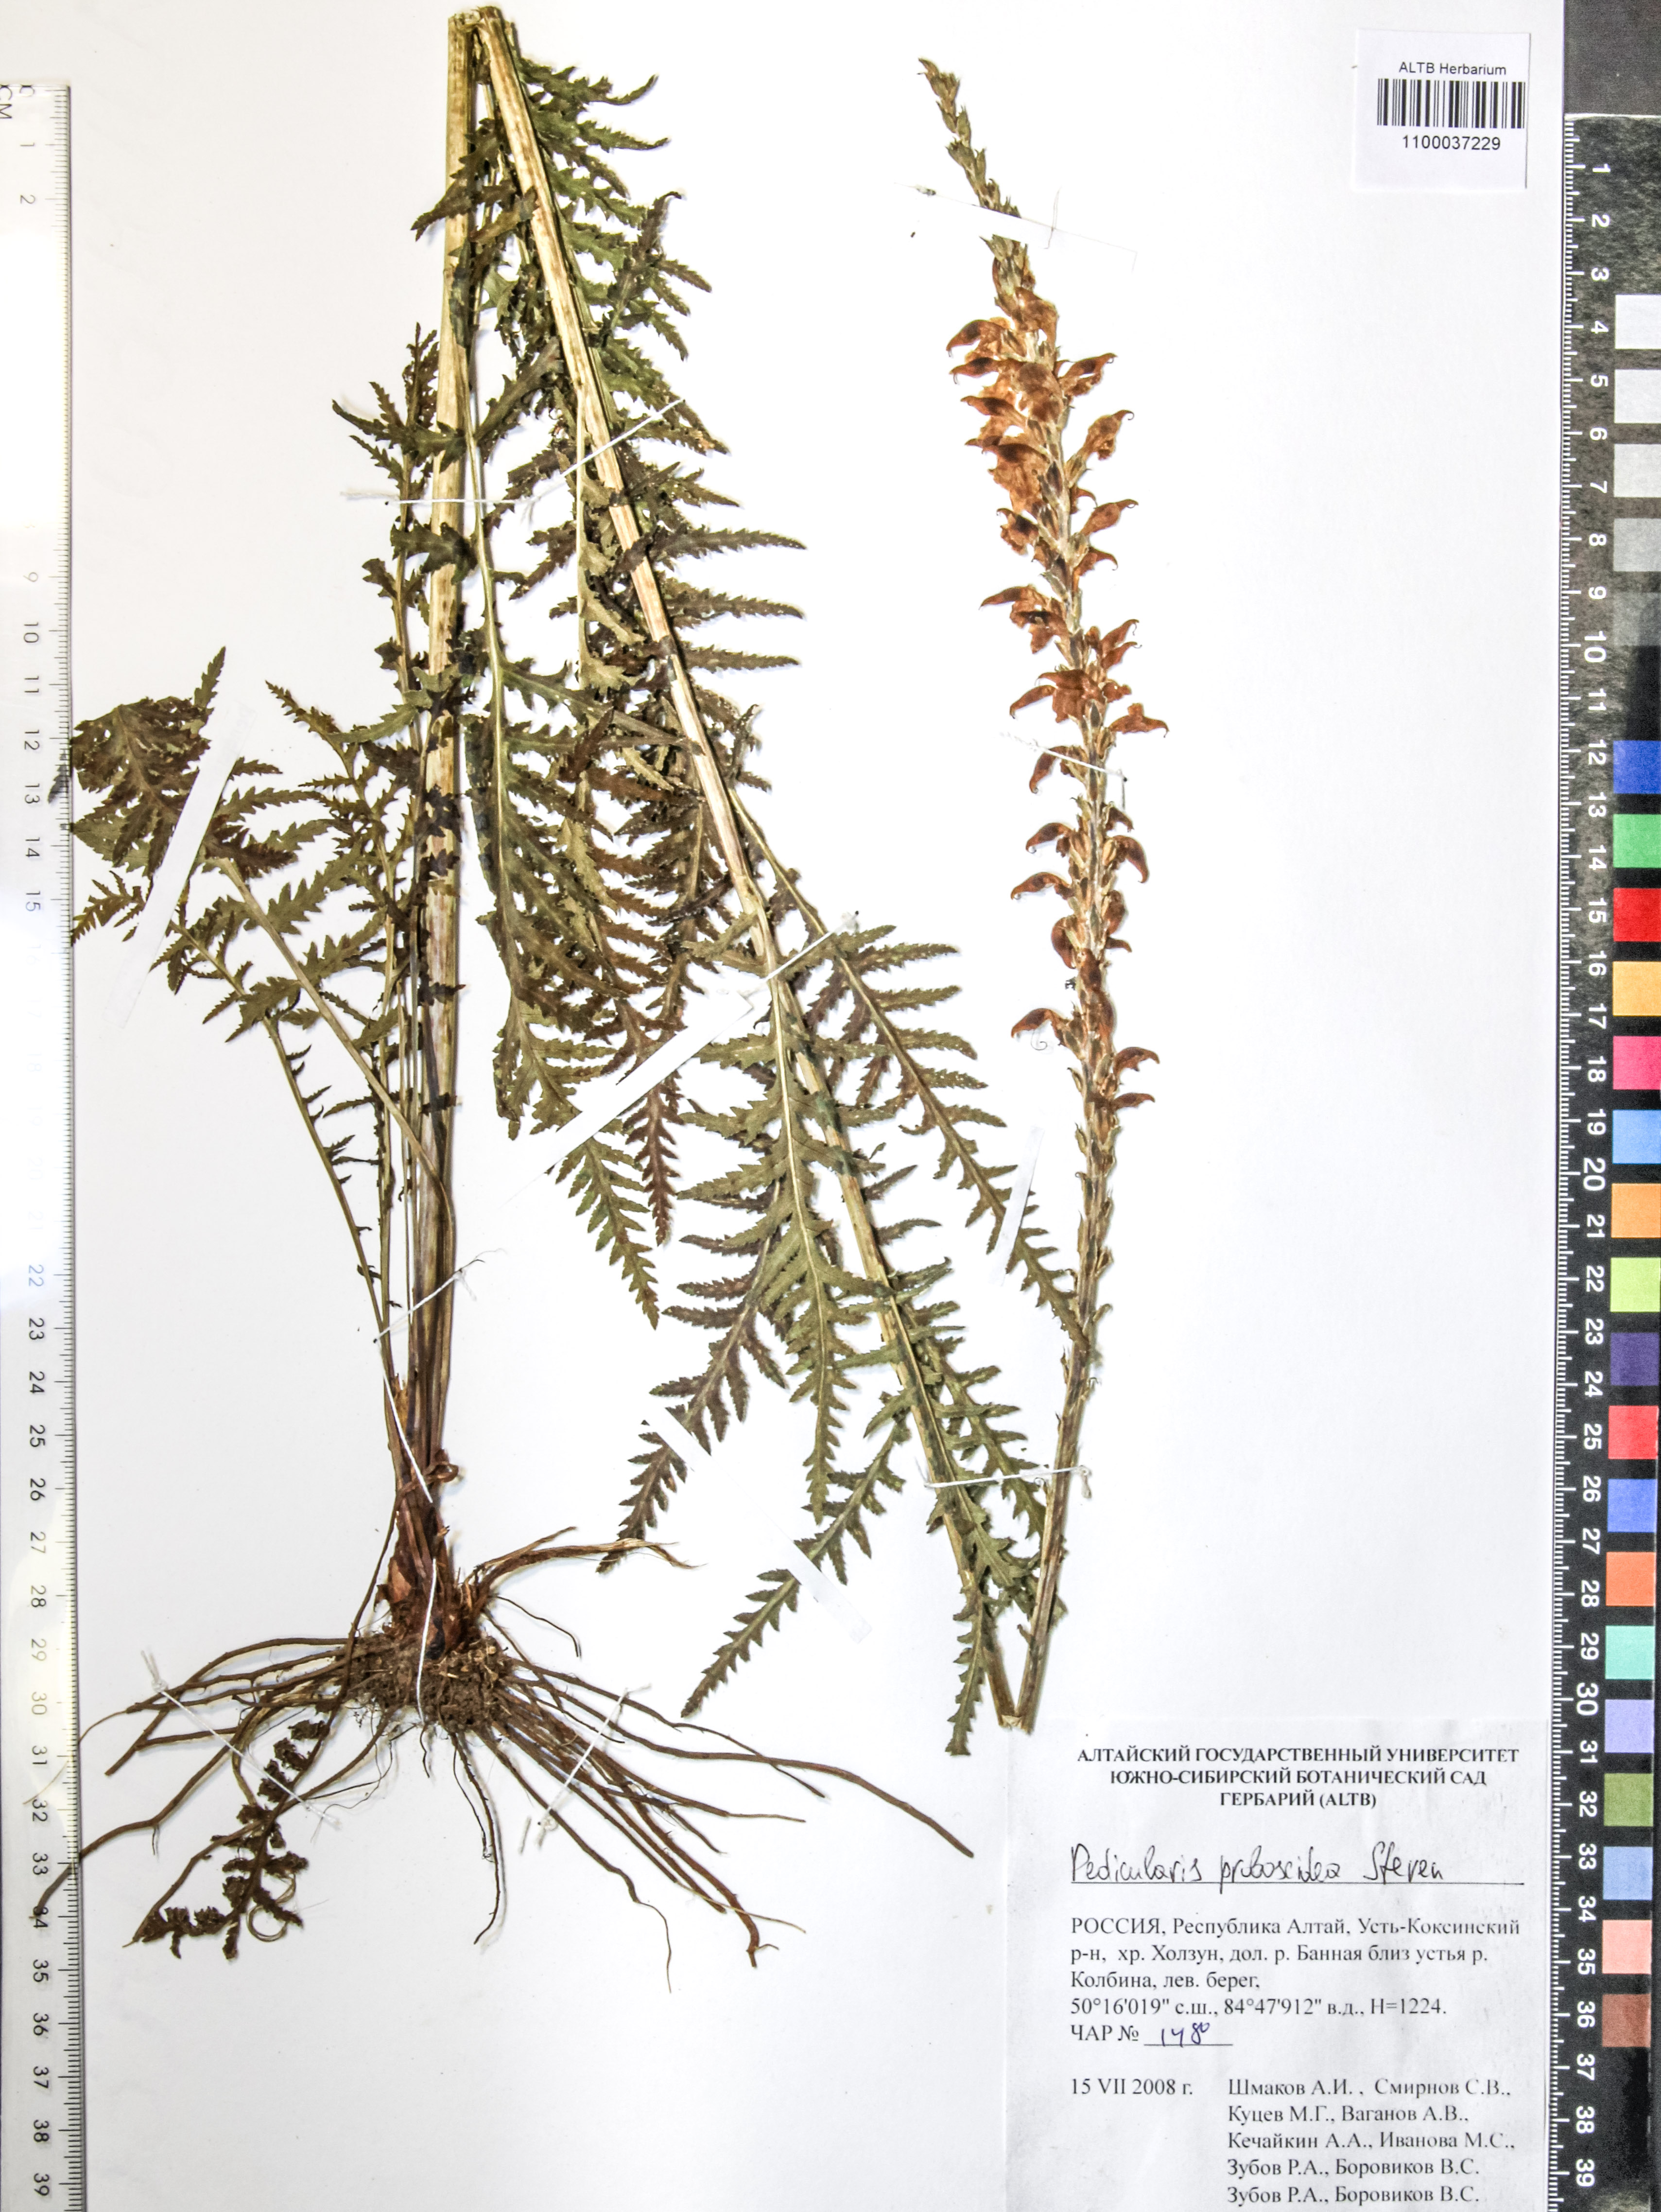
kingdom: Plantae
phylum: Tracheophyta
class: Magnoliopsida
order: Lamiales
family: Orobanchaceae
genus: Pedicularis
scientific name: Pedicularis proboscidea
